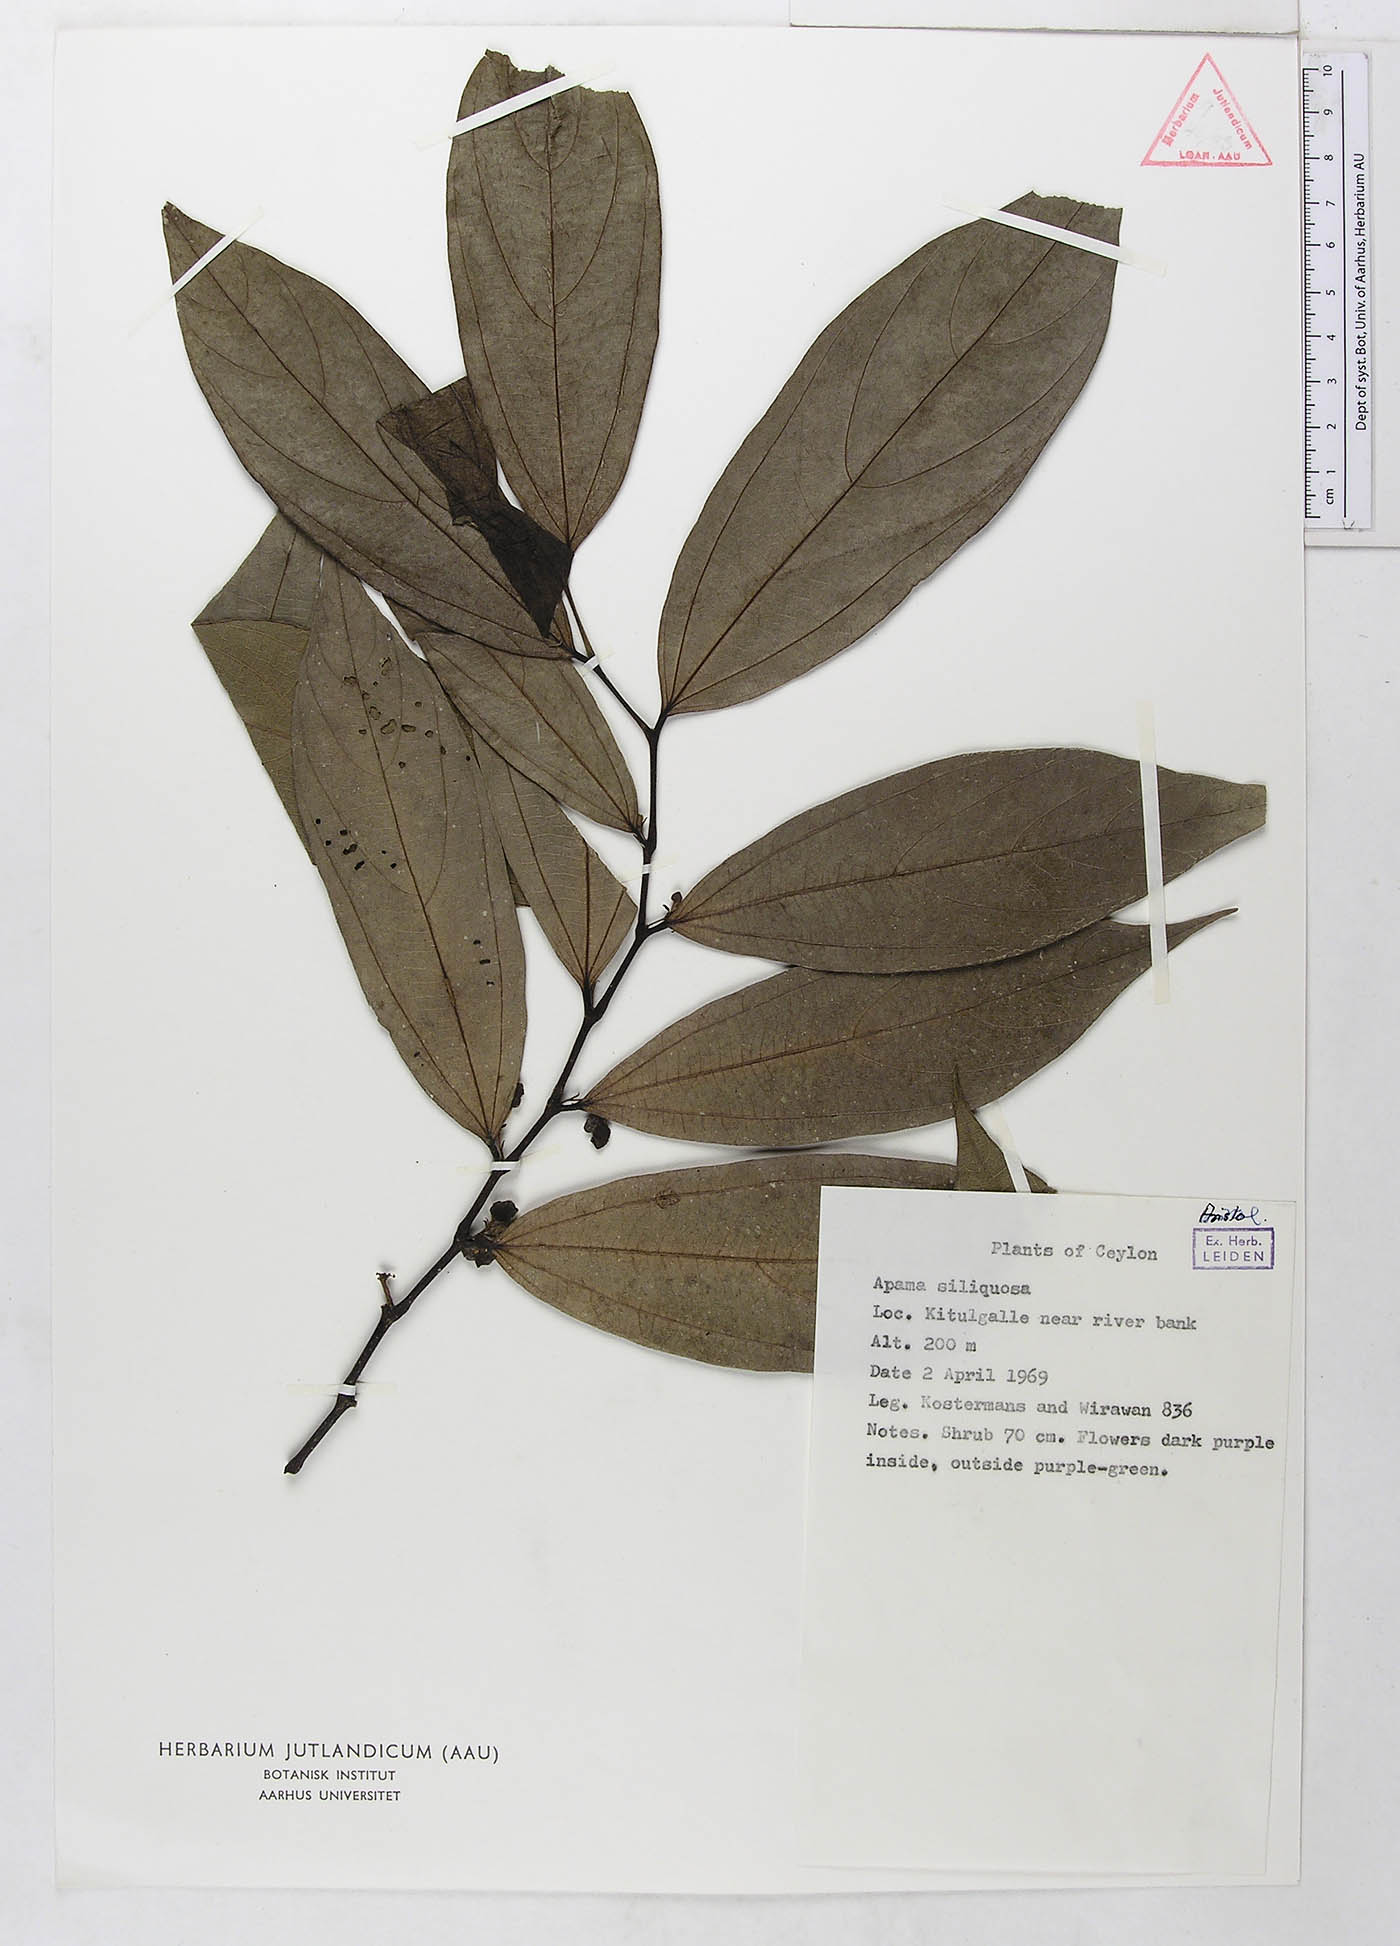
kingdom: Plantae
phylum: Tracheophyta
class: Magnoliopsida
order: Piperales
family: Aristolochiaceae
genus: Thottea
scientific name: Thottea siliquosa
